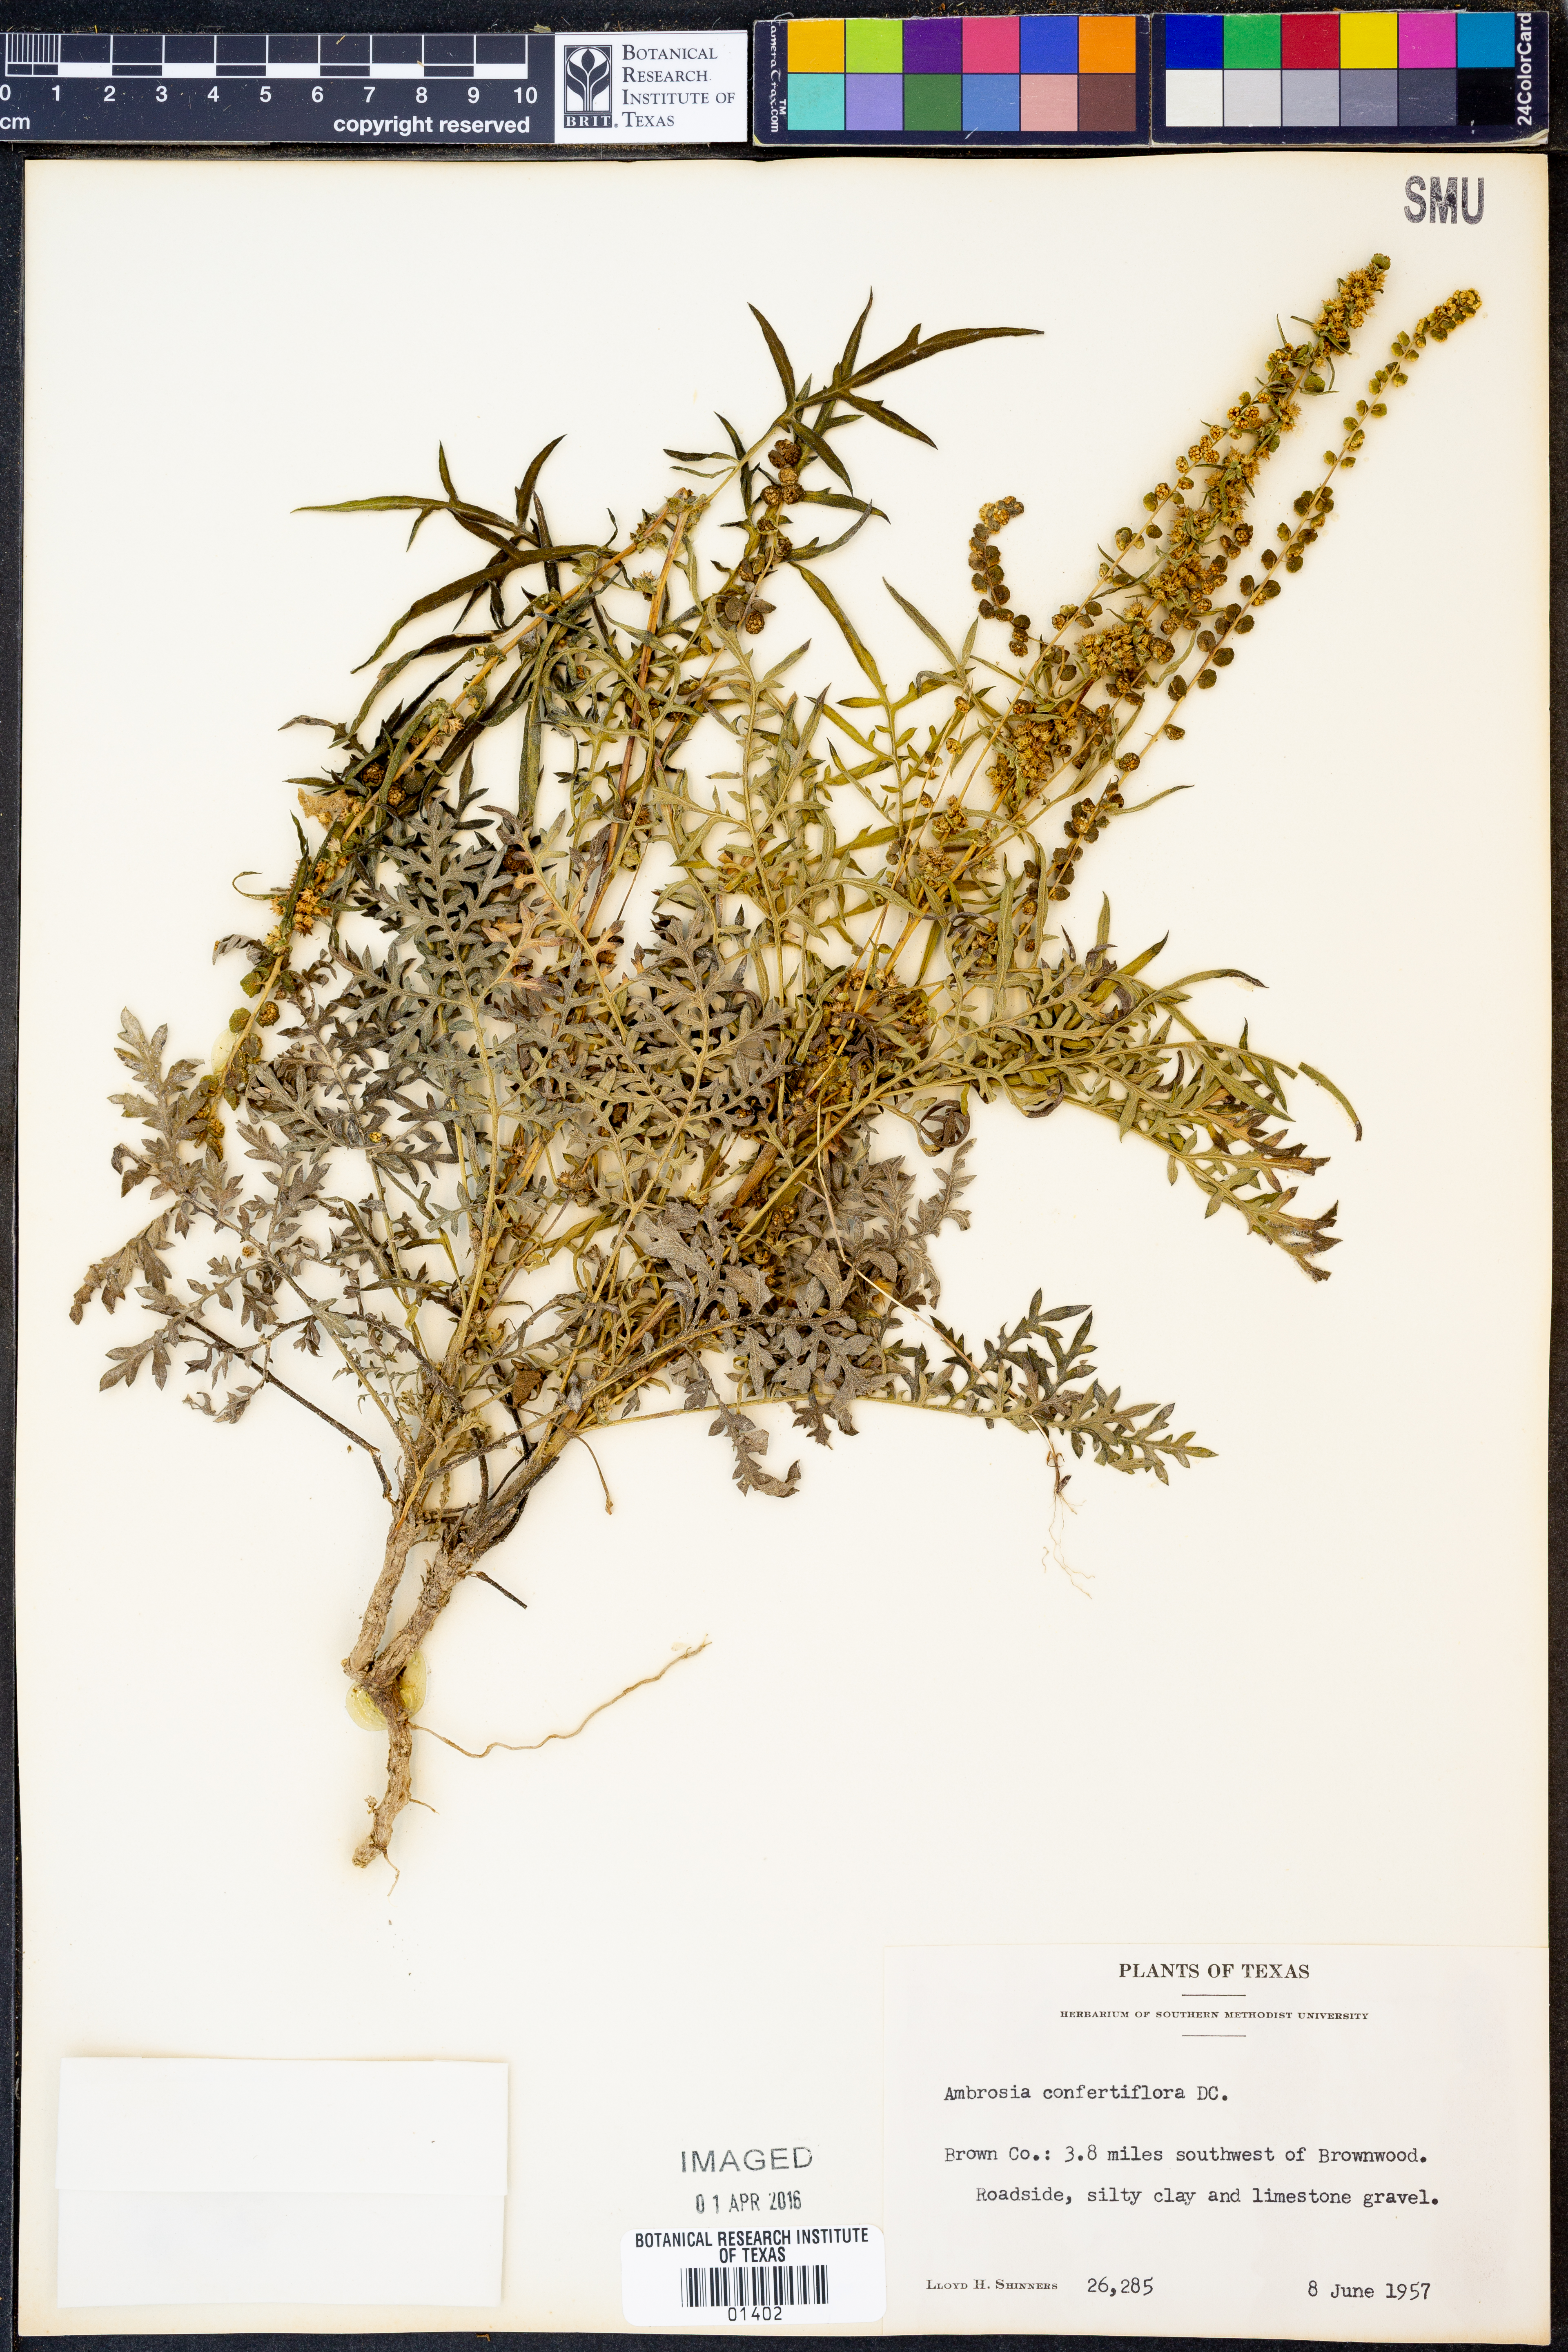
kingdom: Plantae
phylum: Tracheophyta
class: Magnoliopsida
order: Asterales
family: Asteraceae
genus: Ambrosia
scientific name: Ambrosia confertiflora
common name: Bur ragweed
